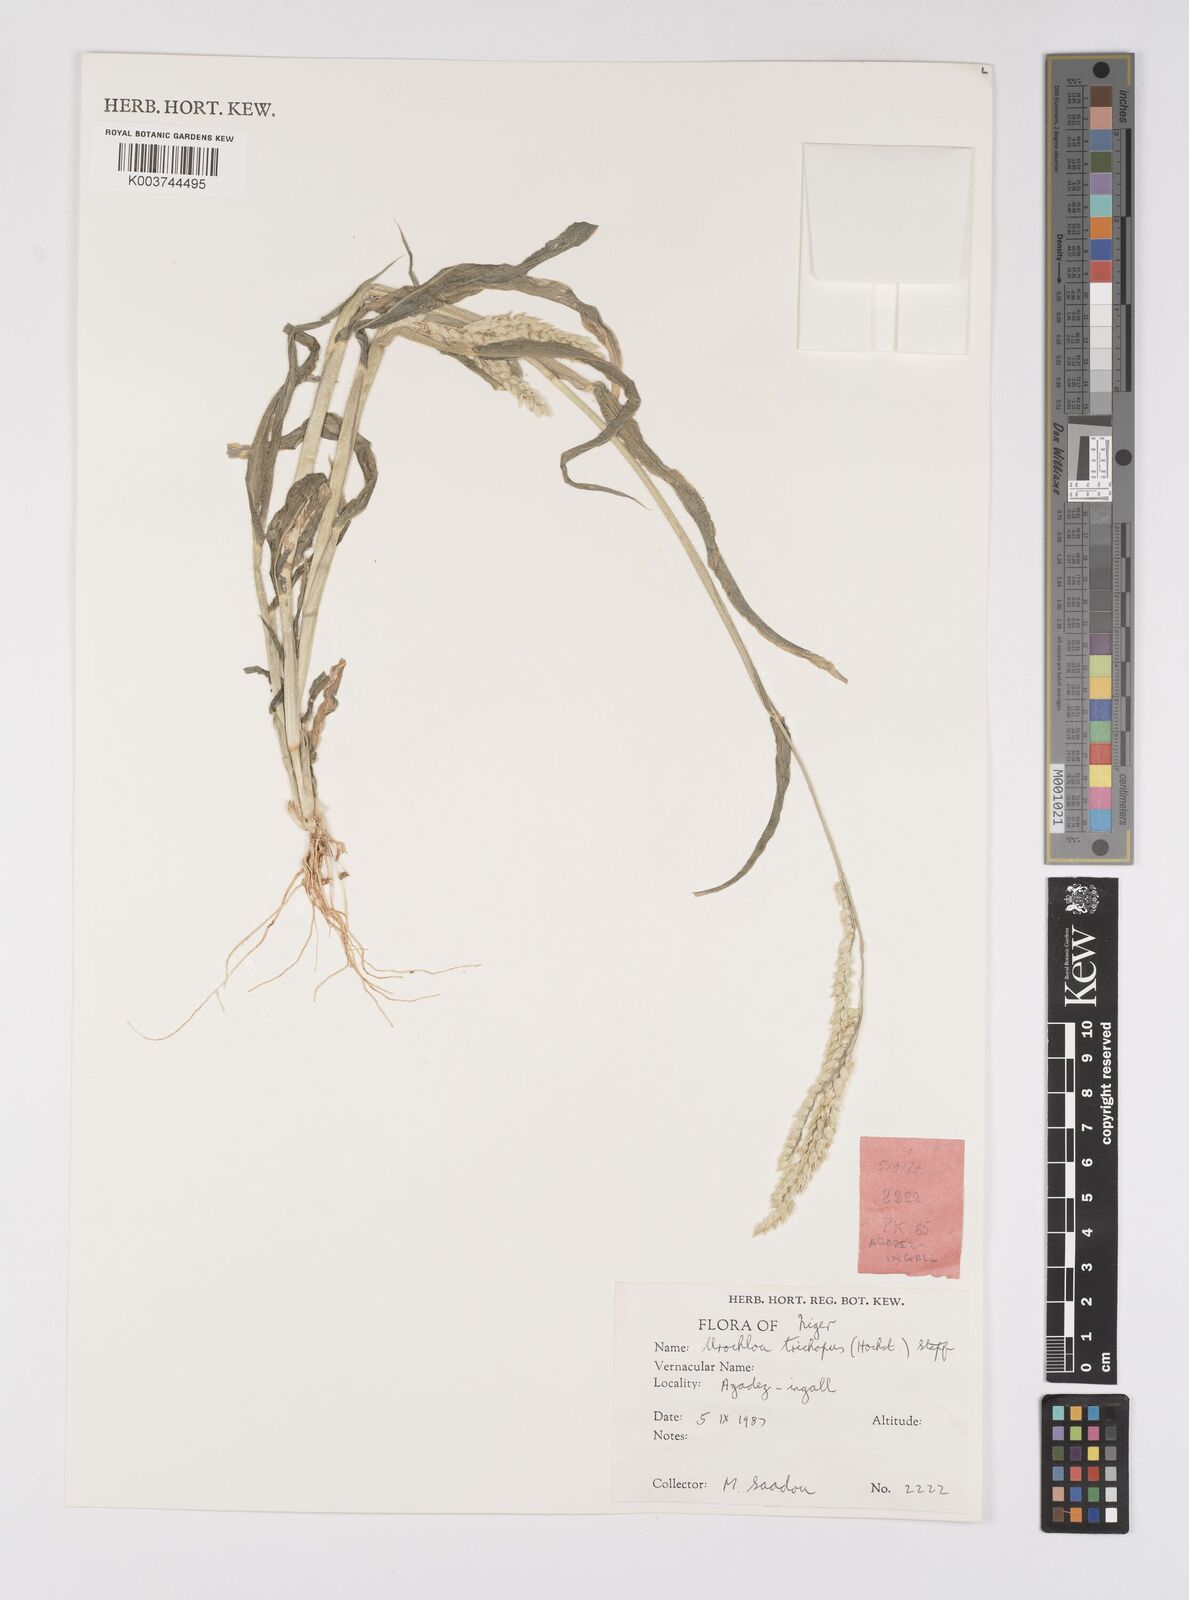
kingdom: Plantae
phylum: Tracheophyta
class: Liliopsida
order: Poales
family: Poaceae
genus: Urochloa
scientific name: Urochloa trichopus
